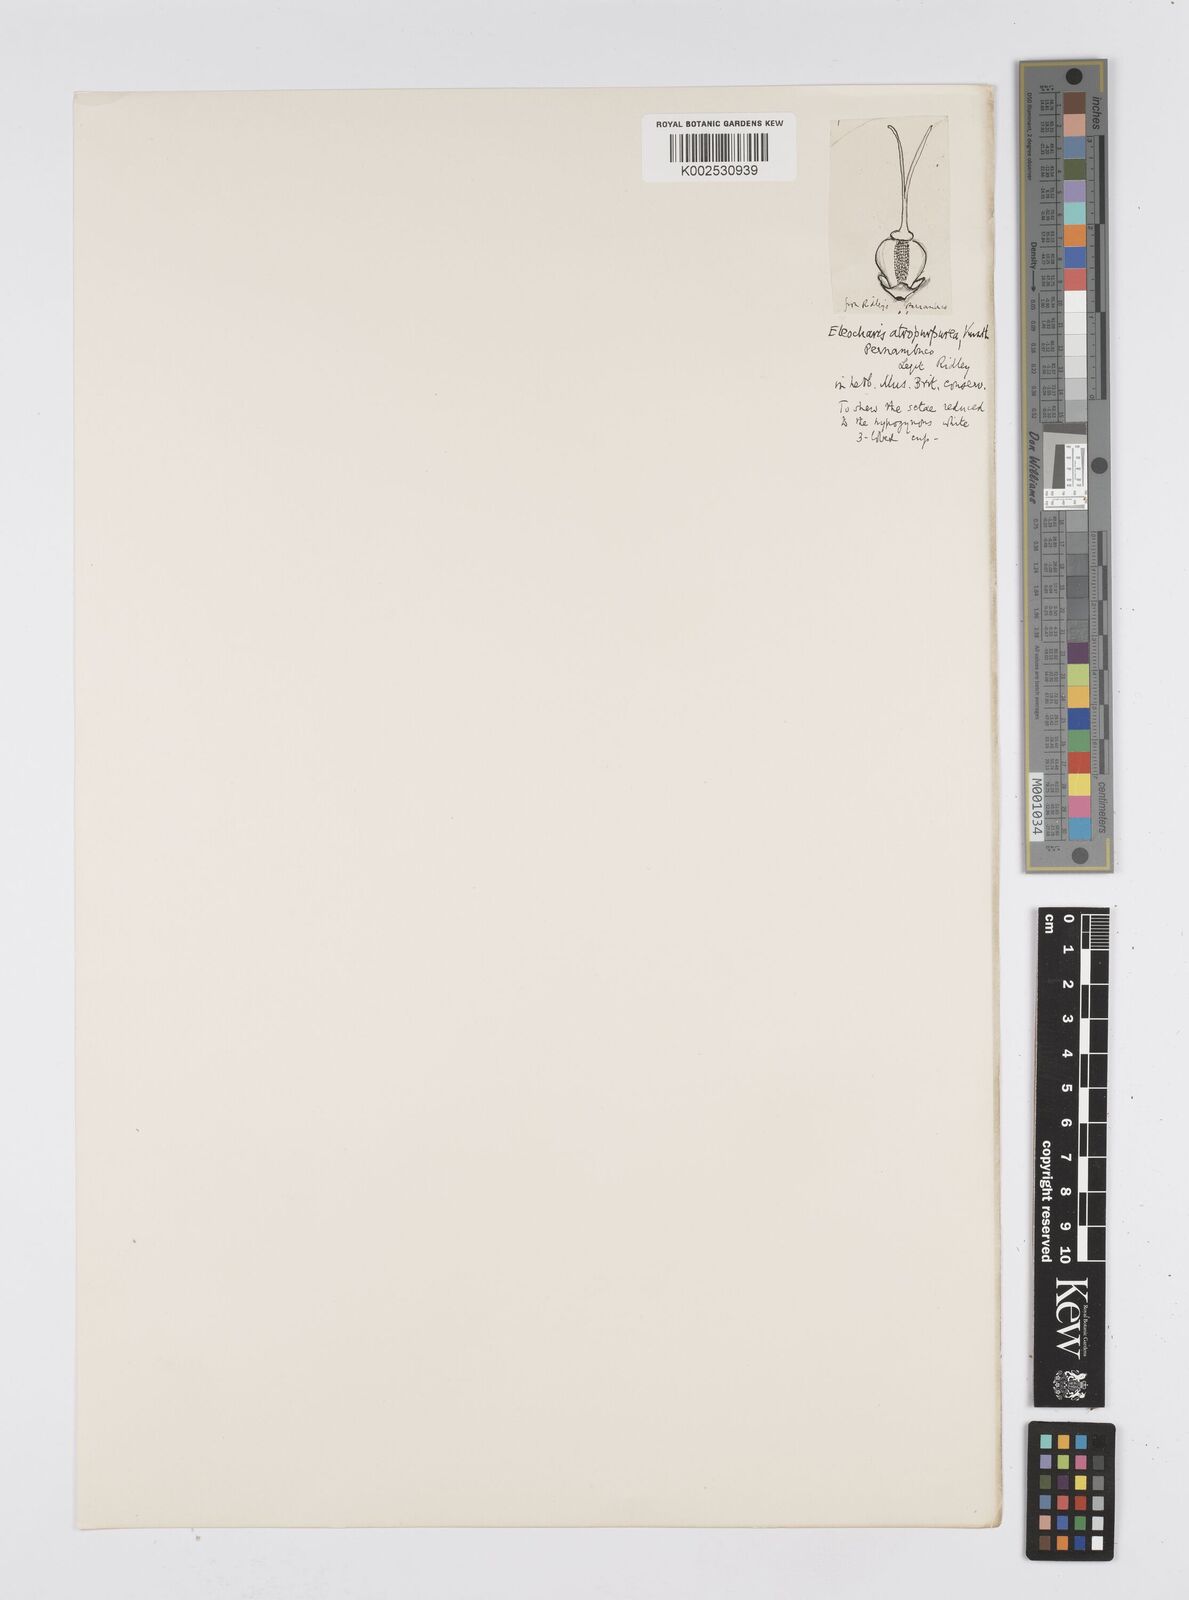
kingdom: Plantae
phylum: Tracheophyta
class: Liliopsida
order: Poales
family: Cyperaceae
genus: Eleocharis
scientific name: Eleocharis atropurpurea
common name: Purple spikerush
